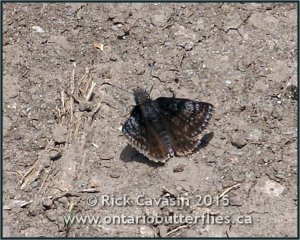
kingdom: Animalia
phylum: Arthropoda
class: Insecta
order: Lepidoptera
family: Hesperiidae
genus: Erynnis
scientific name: Erynnis icelus
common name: Dreamy Duskywing
